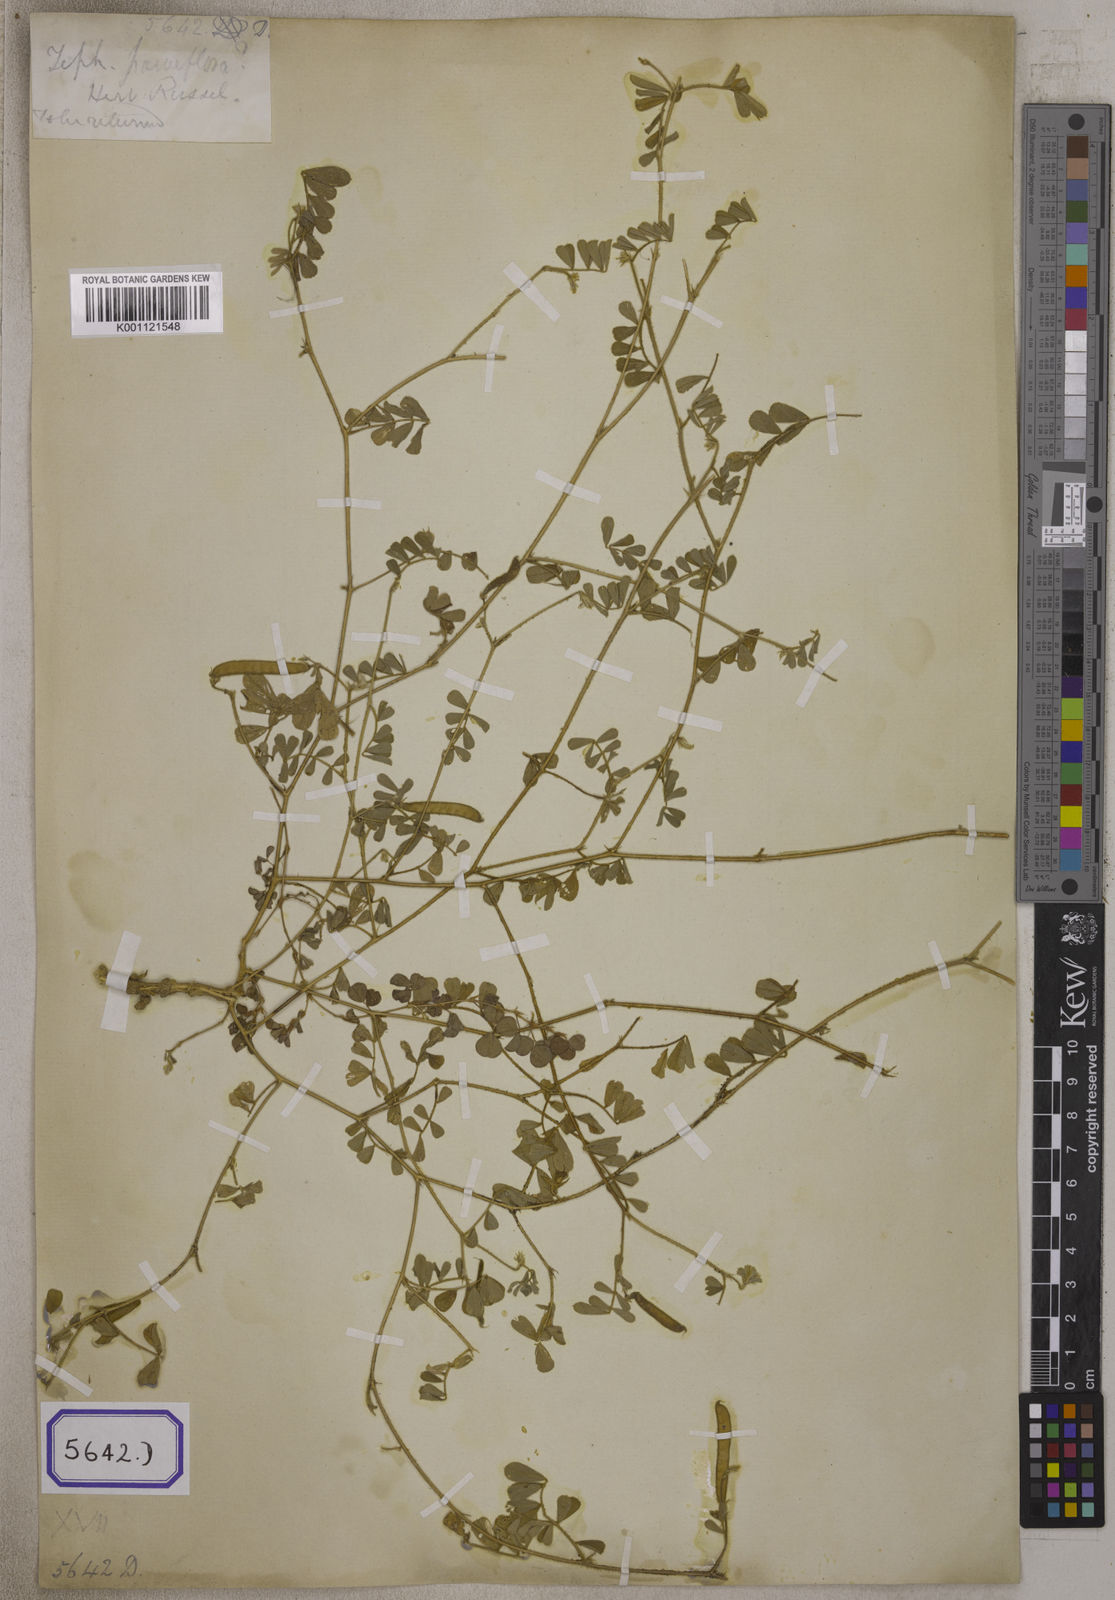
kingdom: Plantae
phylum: Tracheophyta
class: Magnoliopsida
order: Fabales
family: Fabaceae
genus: Tephrosia
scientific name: Tephrosia purpurea
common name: Fishpoison
